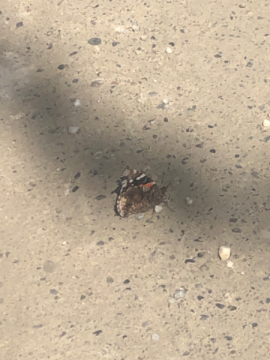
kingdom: Animalia
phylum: Arthropoda
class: Insecta
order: Lepidoptera
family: Nymphalidae
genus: Vanessa
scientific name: Vanessa atalanta
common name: Red Admiral
